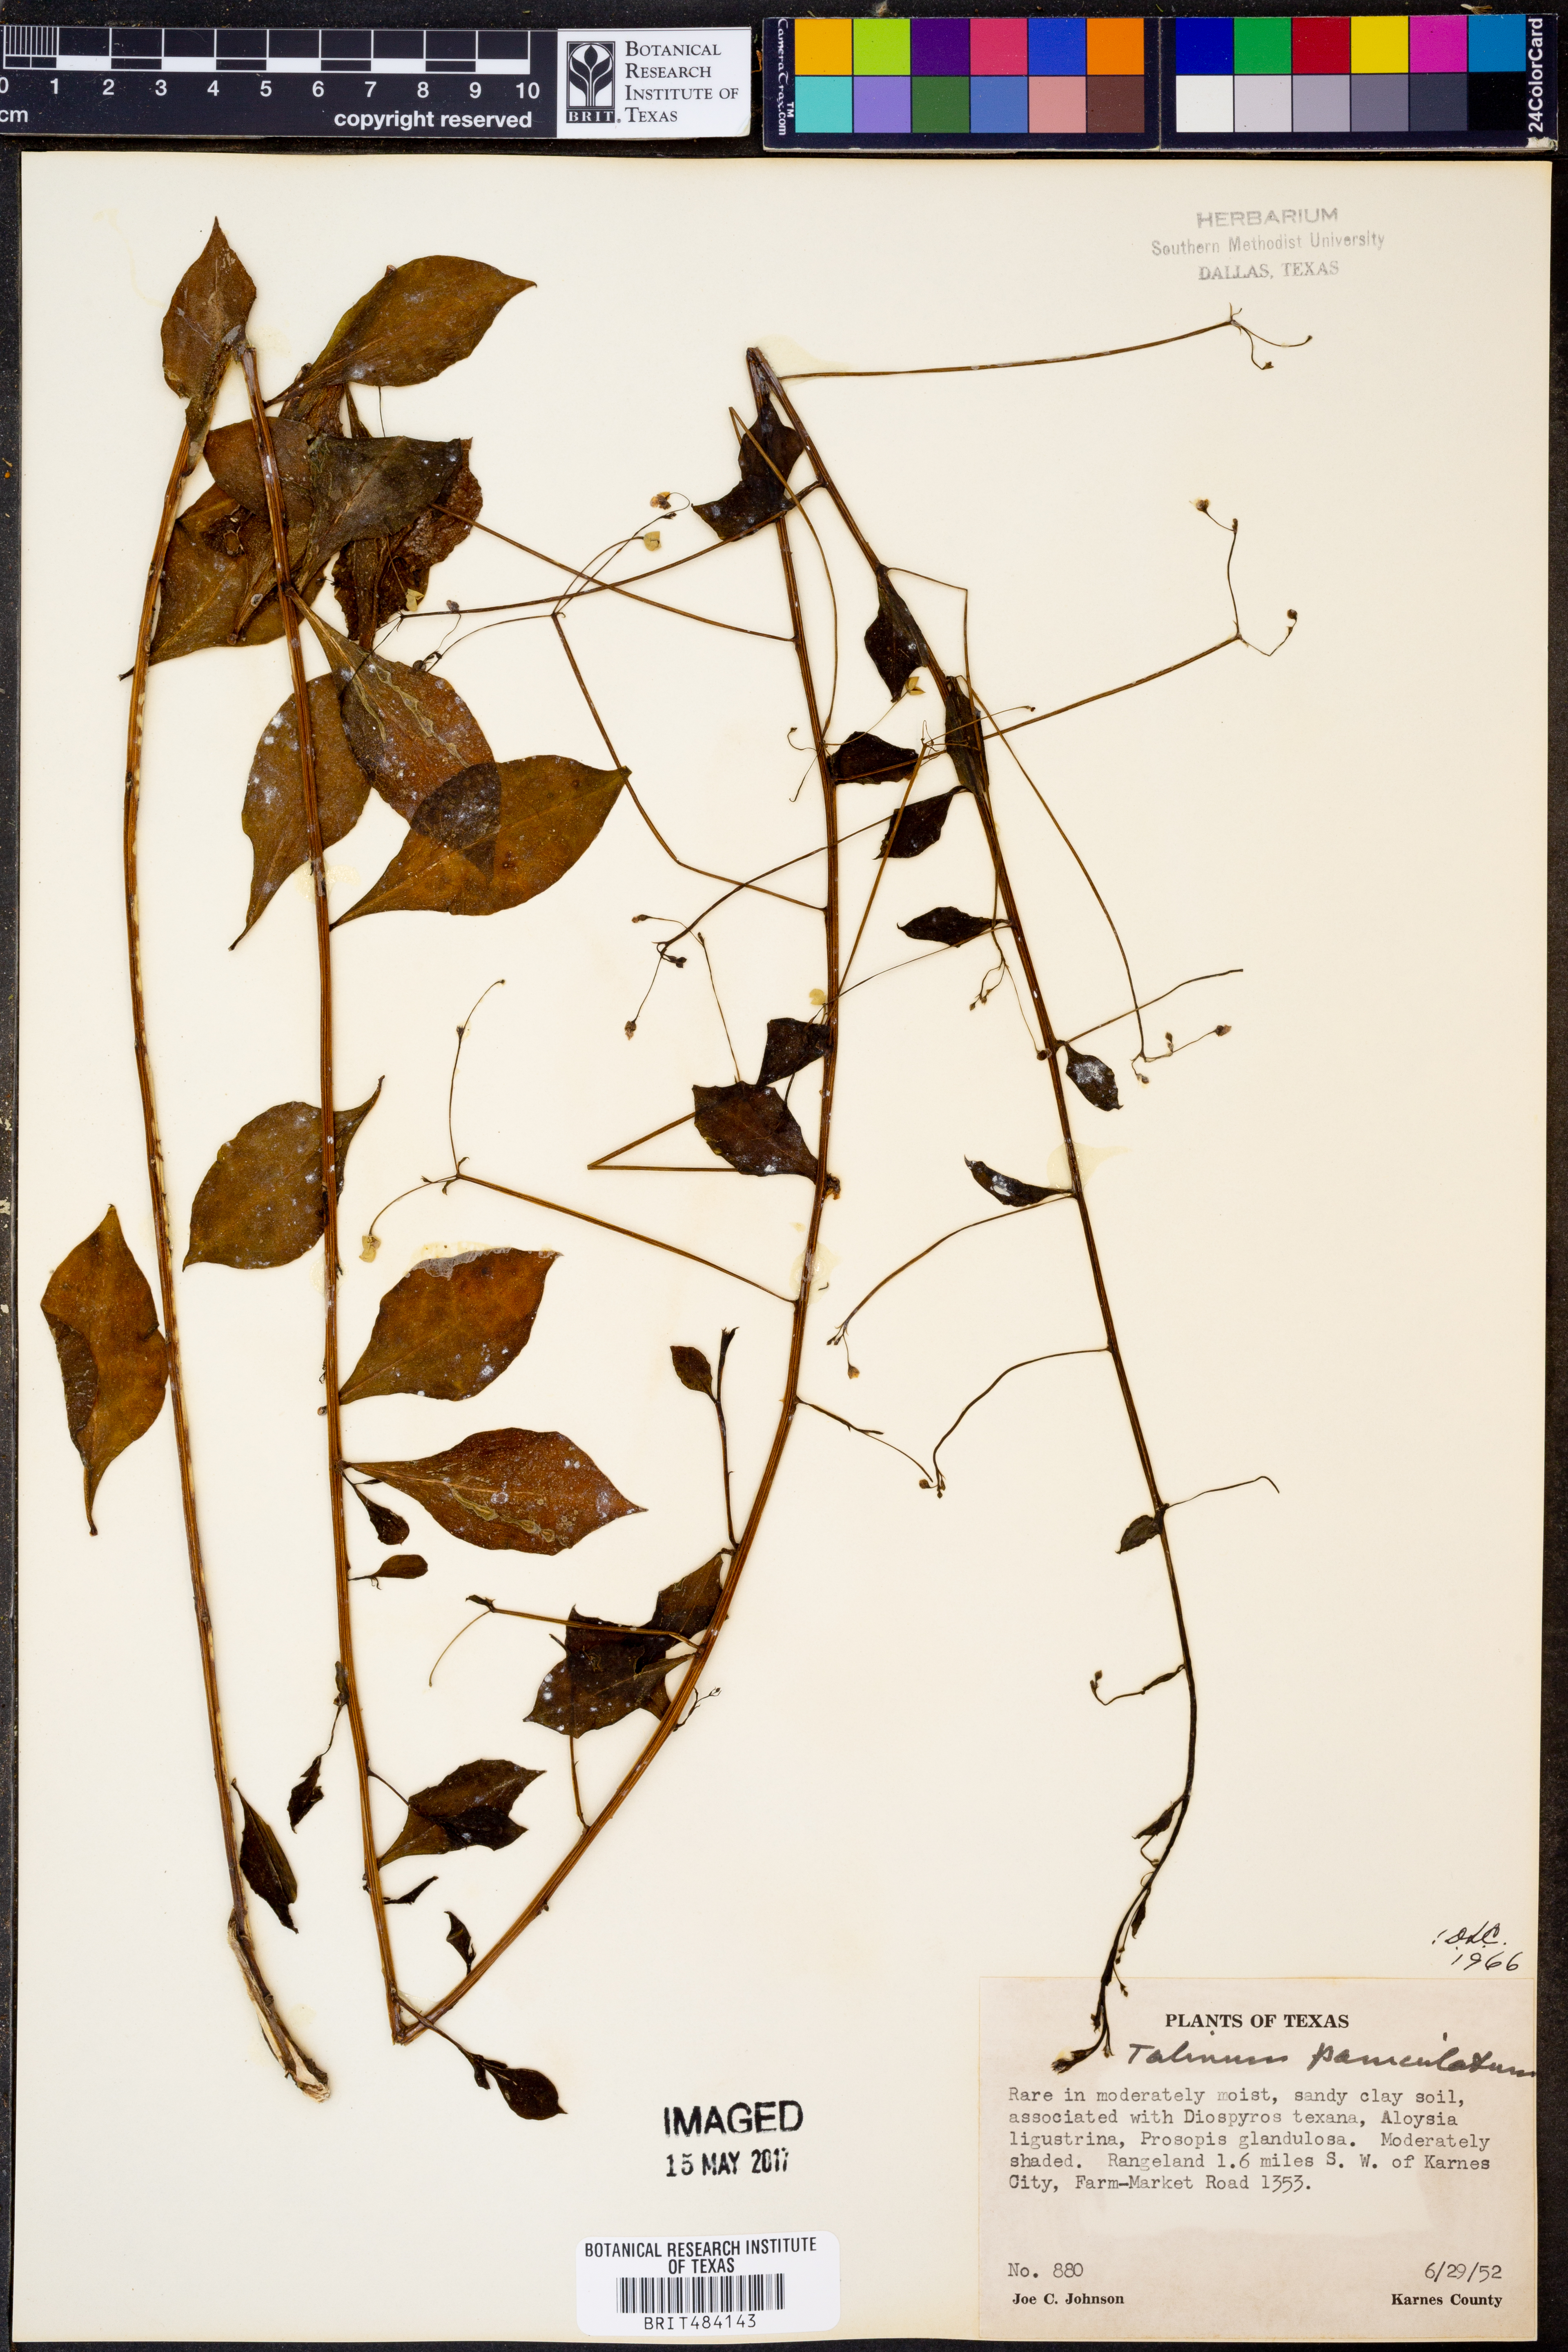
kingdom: Plantae
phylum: Tracheophyta
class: Magnoliopsida
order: Caryophyllales
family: Talinaceae
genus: Talinum
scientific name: Talinum paniculatum
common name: Jewels of opar
